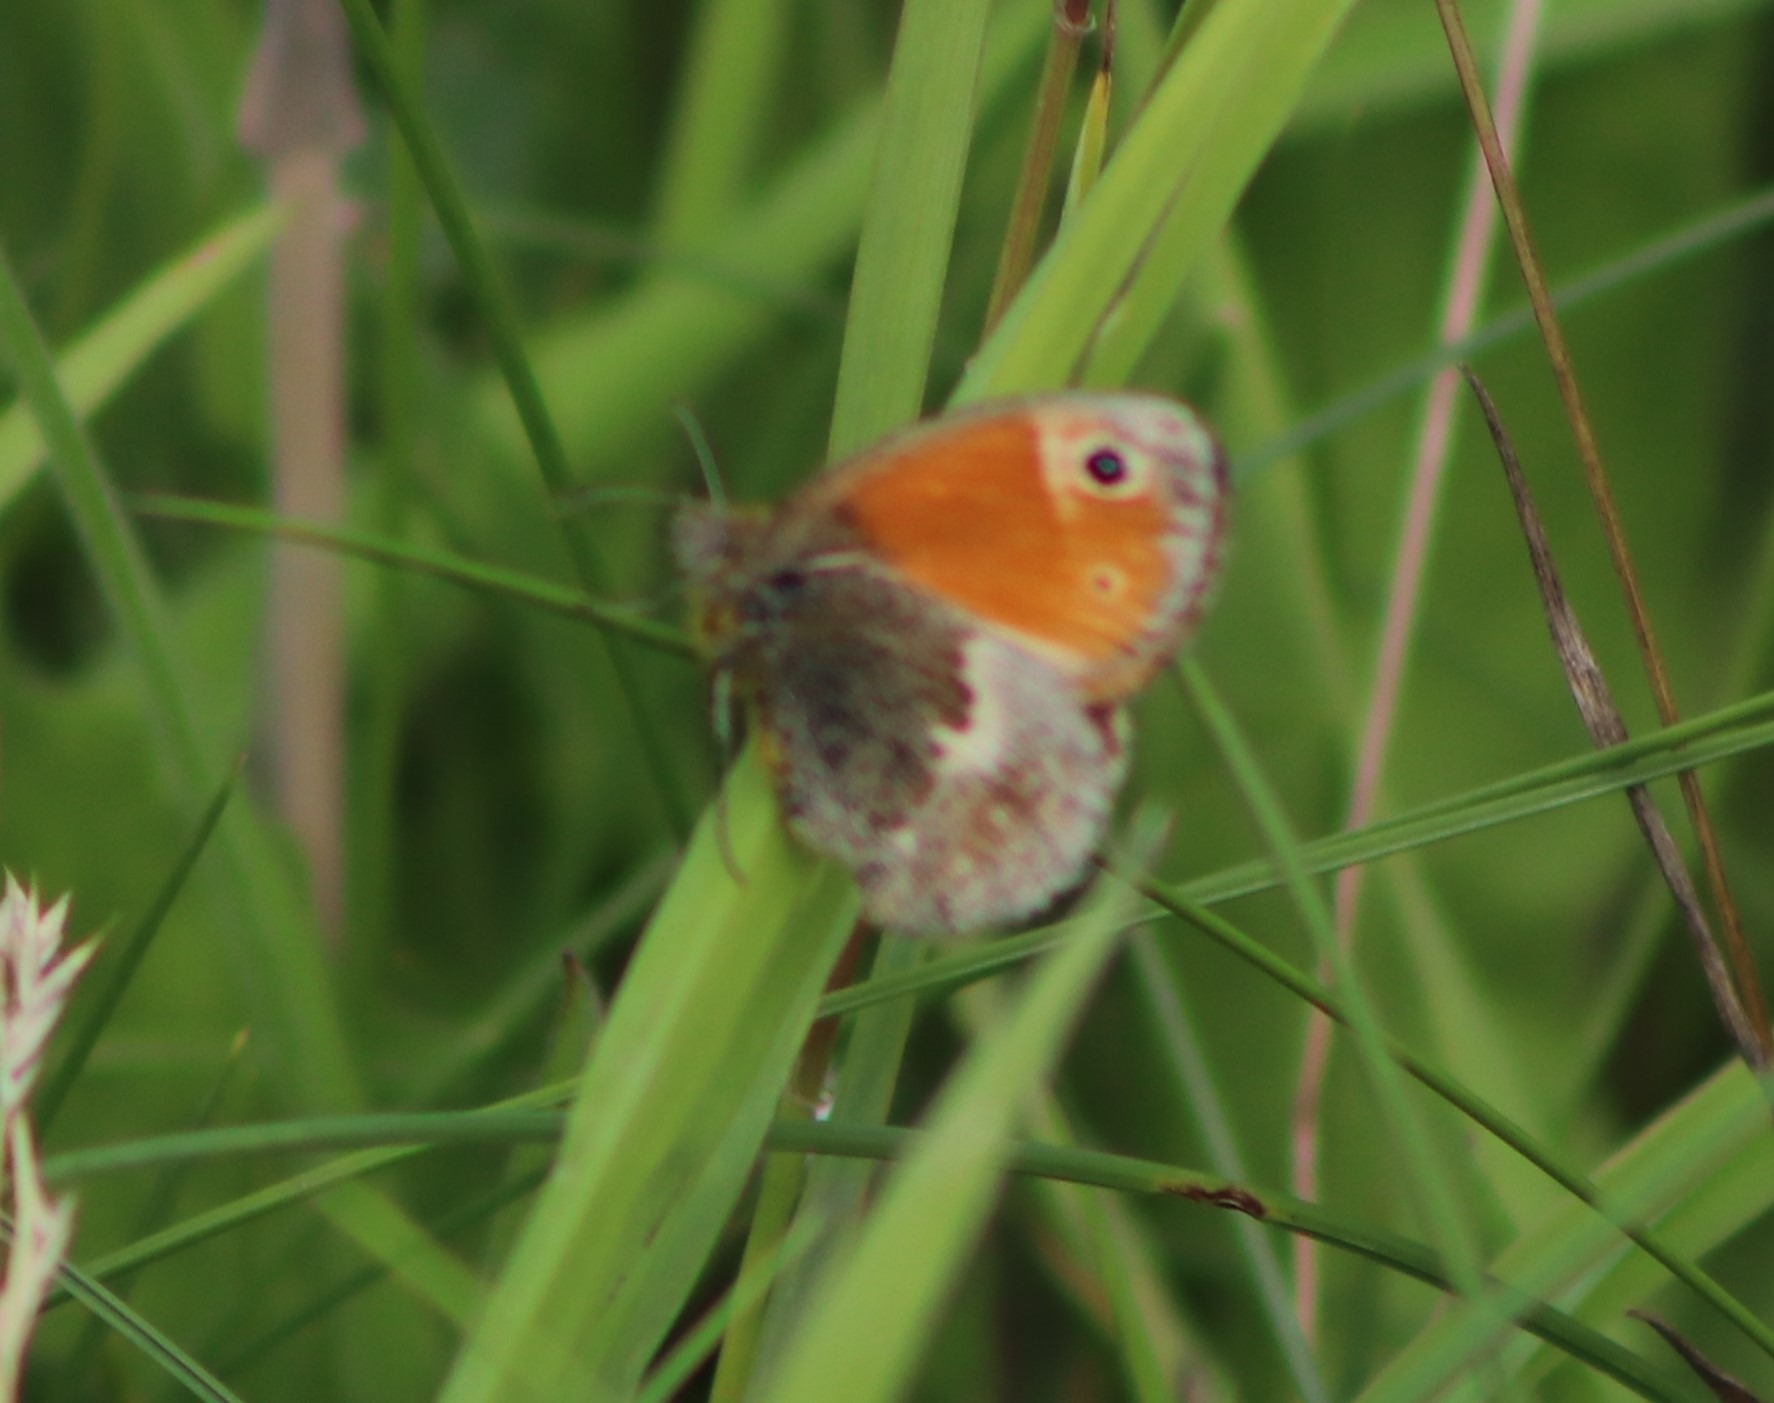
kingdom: Animalia
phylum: Arthropoda
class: Insecta
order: Lepidoptera
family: Nymphalidae
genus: Coenonympha
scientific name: Coenonympha pamphilus
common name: Okkergul randøje
